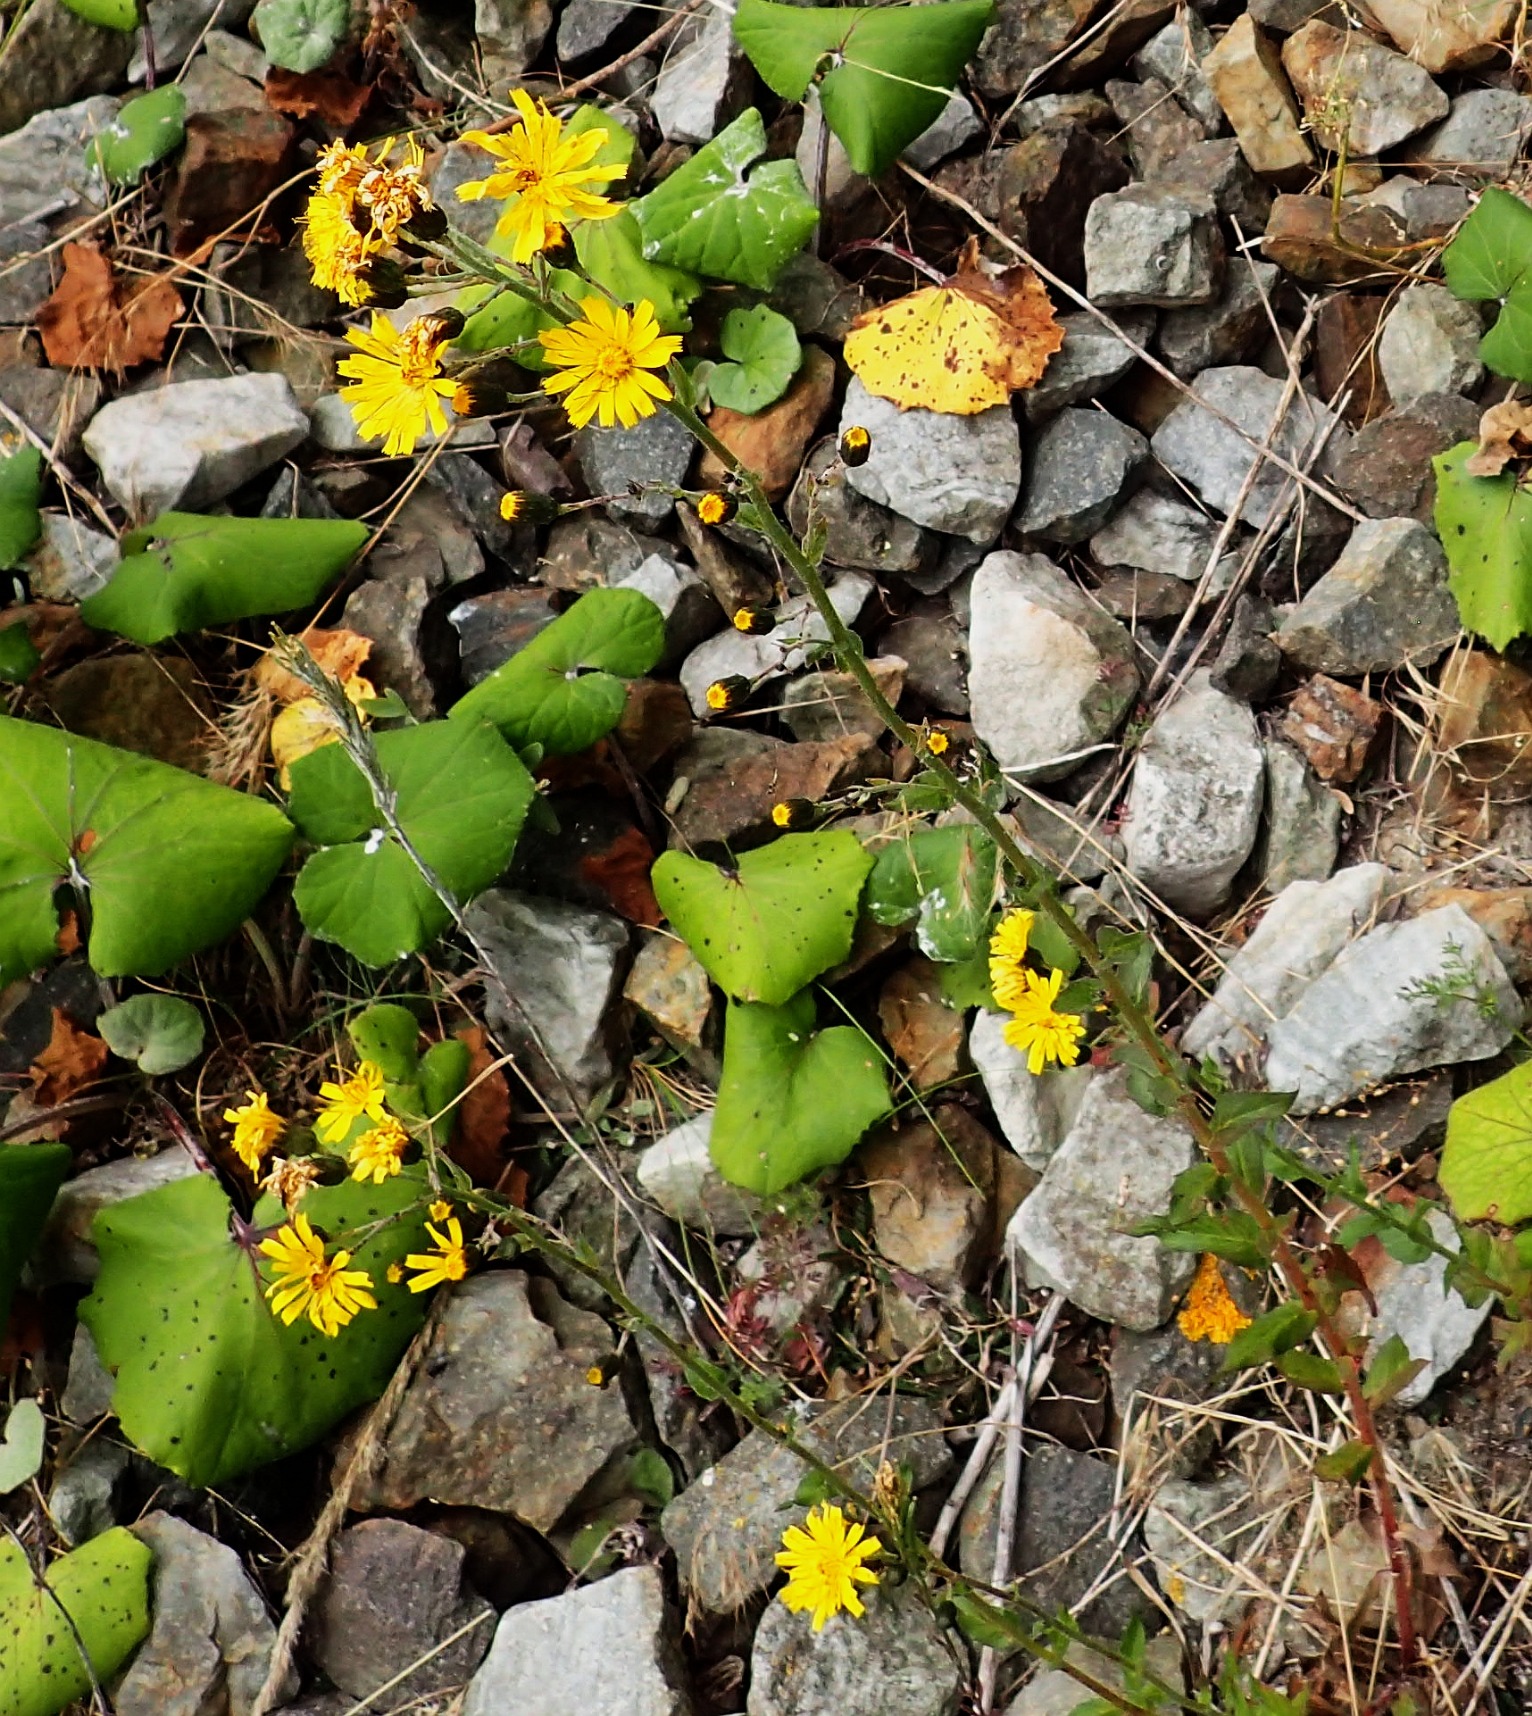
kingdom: Plantae
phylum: Tracheophyta
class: Magnoliopsida
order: Asterales
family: Asteraceae
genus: Hieracium
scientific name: Hieracium sabaudum
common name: Bredbladet høgeurt
